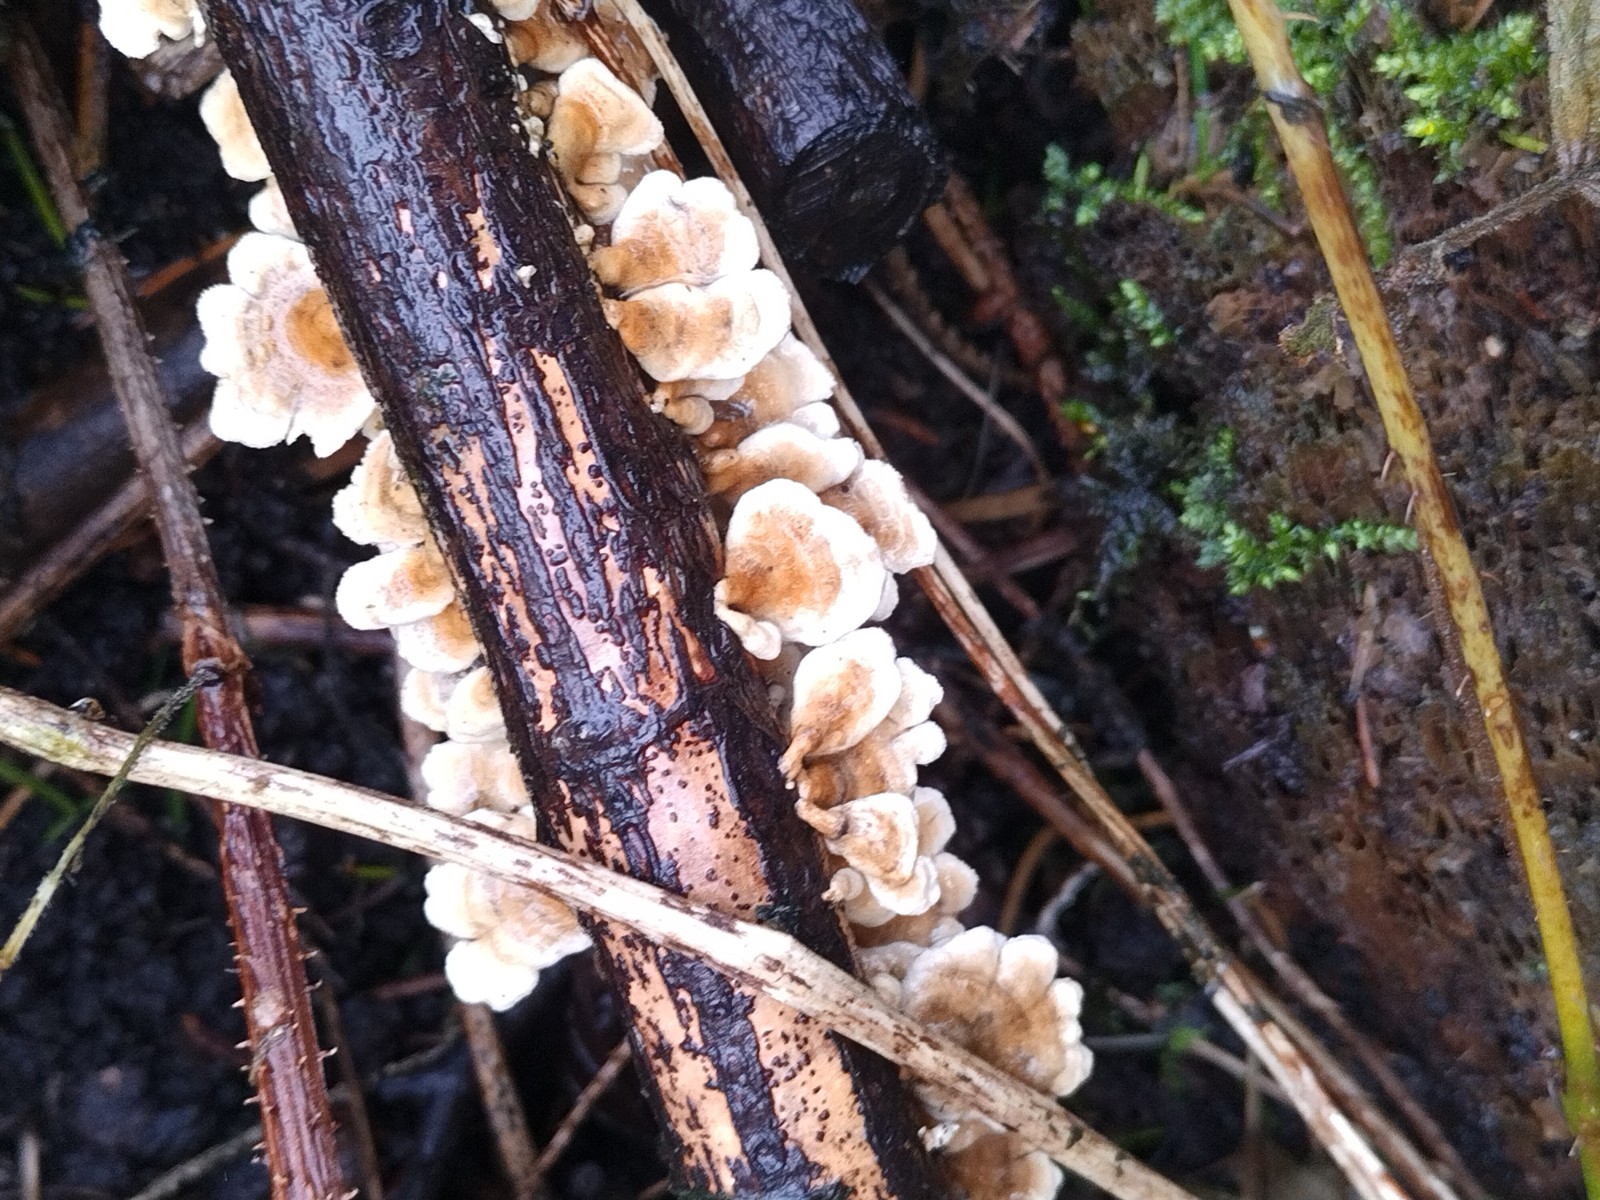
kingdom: Fungi
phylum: Basidiomycota
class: Agaricomycetes
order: Amylocorticiales
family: Amylocorticiaceae
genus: Plicaturopsis
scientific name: Plicaturopsis crispa
